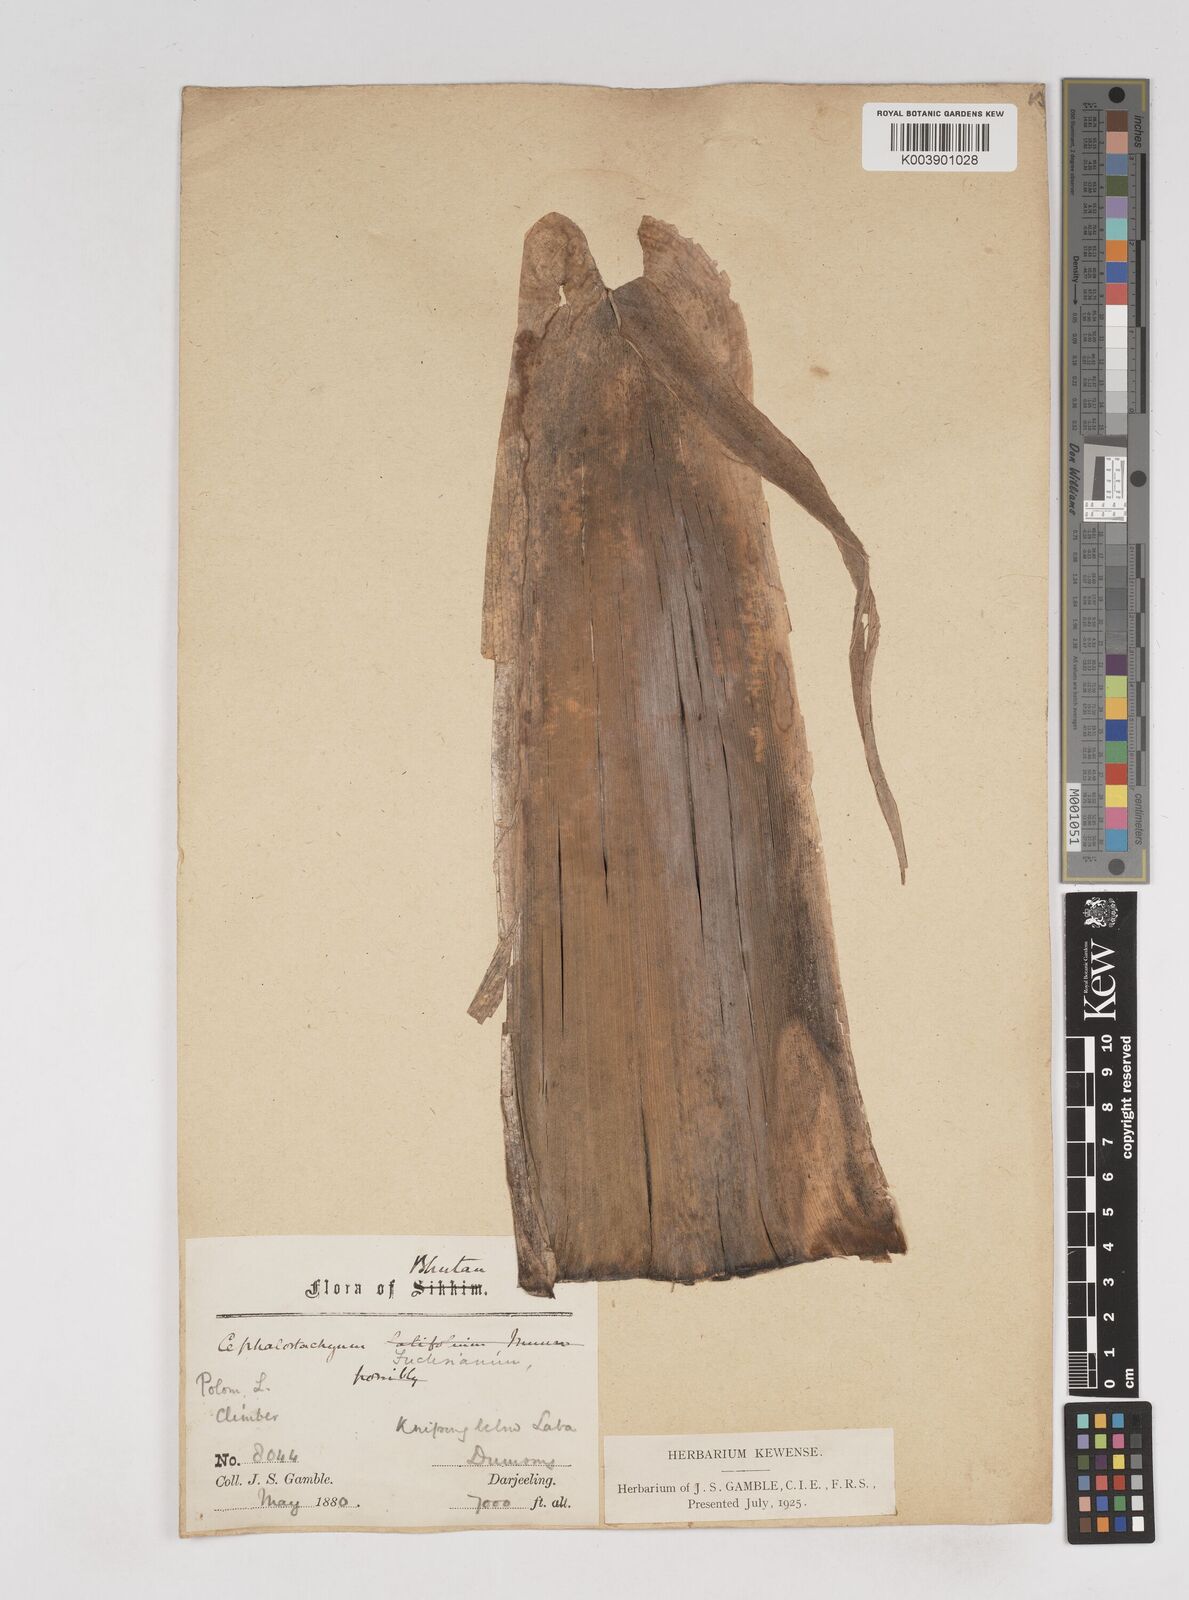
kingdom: Plantae
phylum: Tracheophyta
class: Liliopsida
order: Poales
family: Poaceae
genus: Cephalostachyum
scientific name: Cephalostachyum
